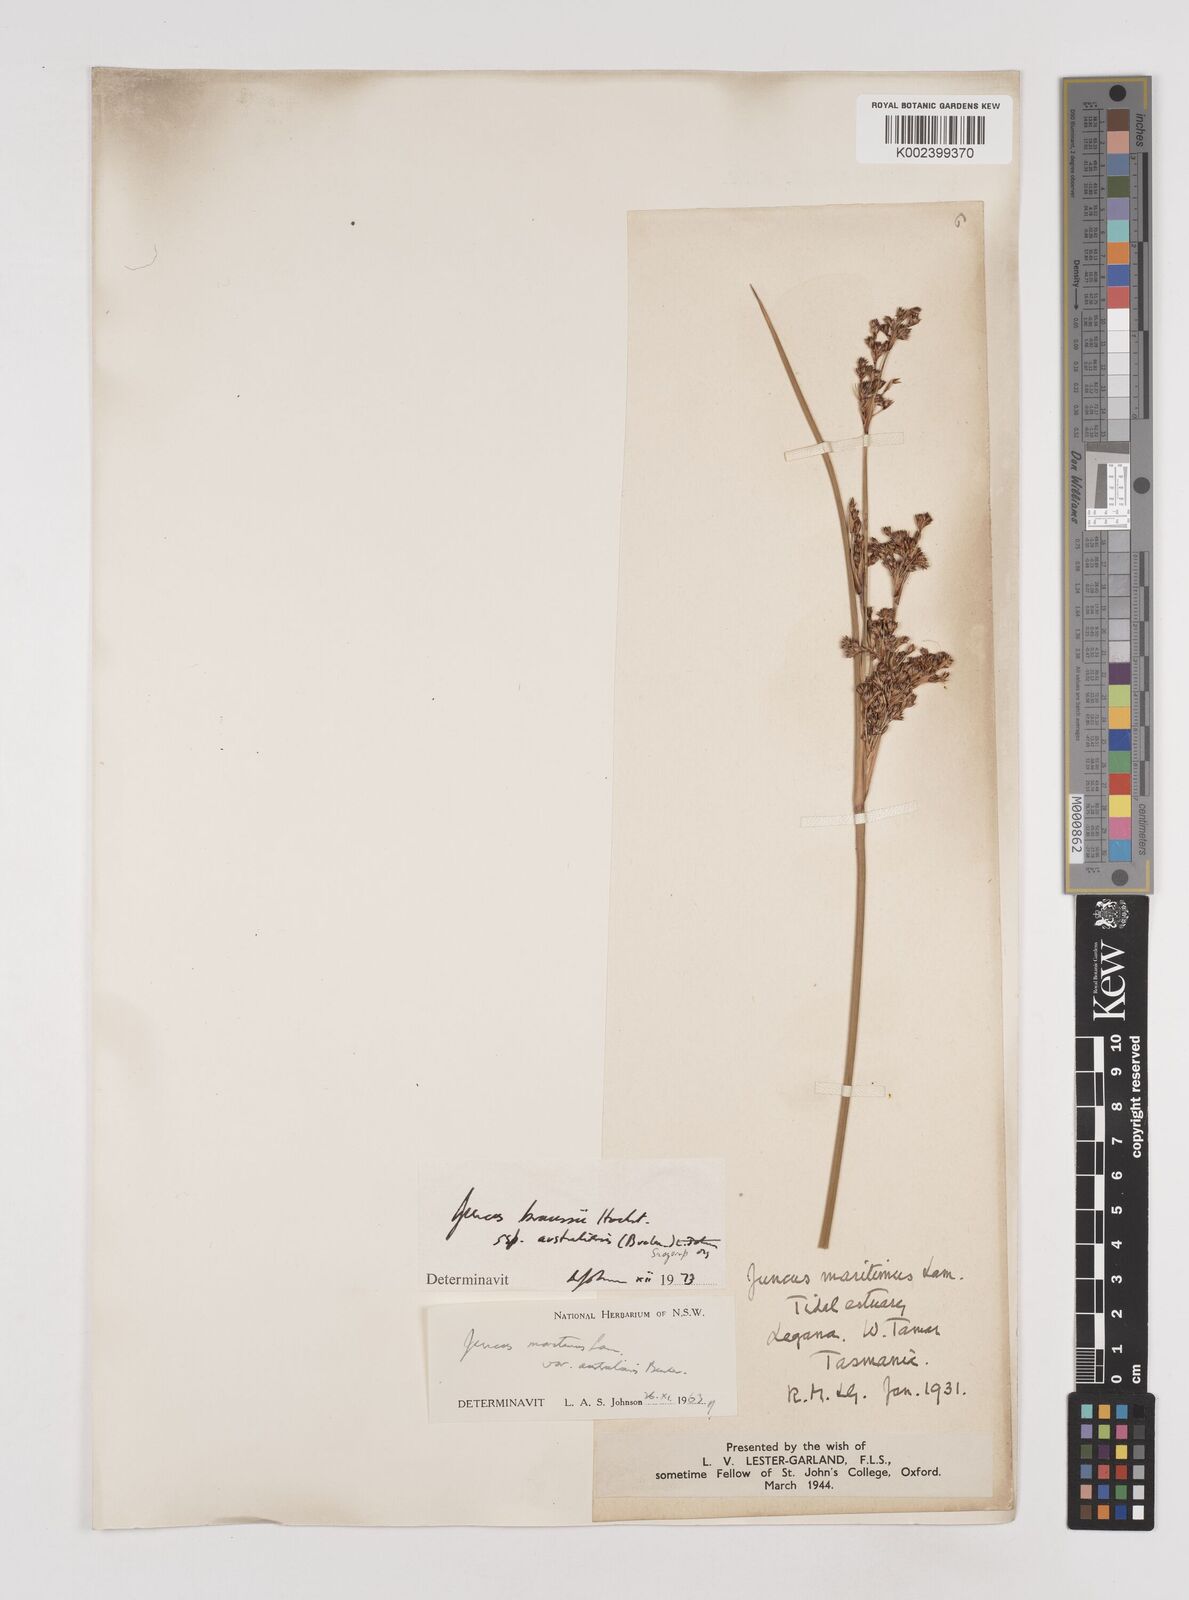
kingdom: Plantae
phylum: Tracheophyta
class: Liliopsida
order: Poales
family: Juncaceae
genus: Juncus
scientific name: Juncus kraussii
